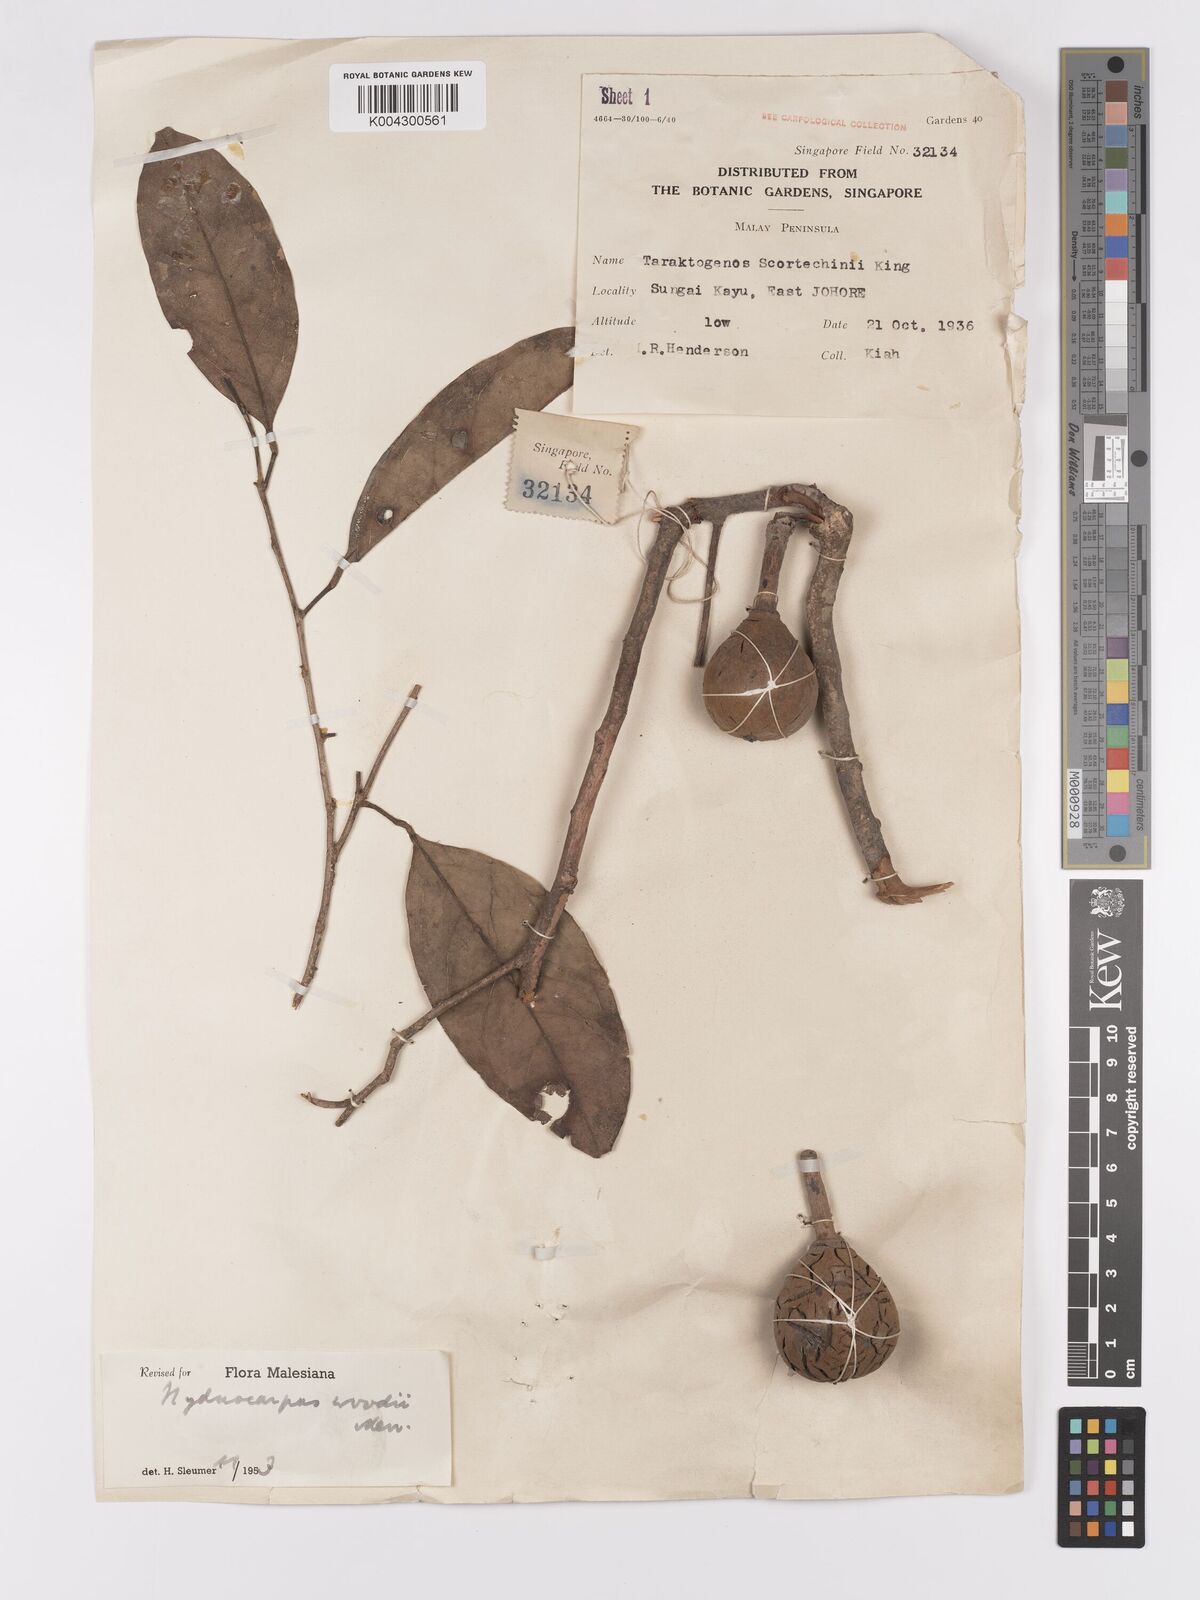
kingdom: Plantae
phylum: Tracheophyta
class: Magnoliopsida
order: Malpighiales
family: Achariaceae
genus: Hydnocarpus
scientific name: Hydnocarpus woodii
